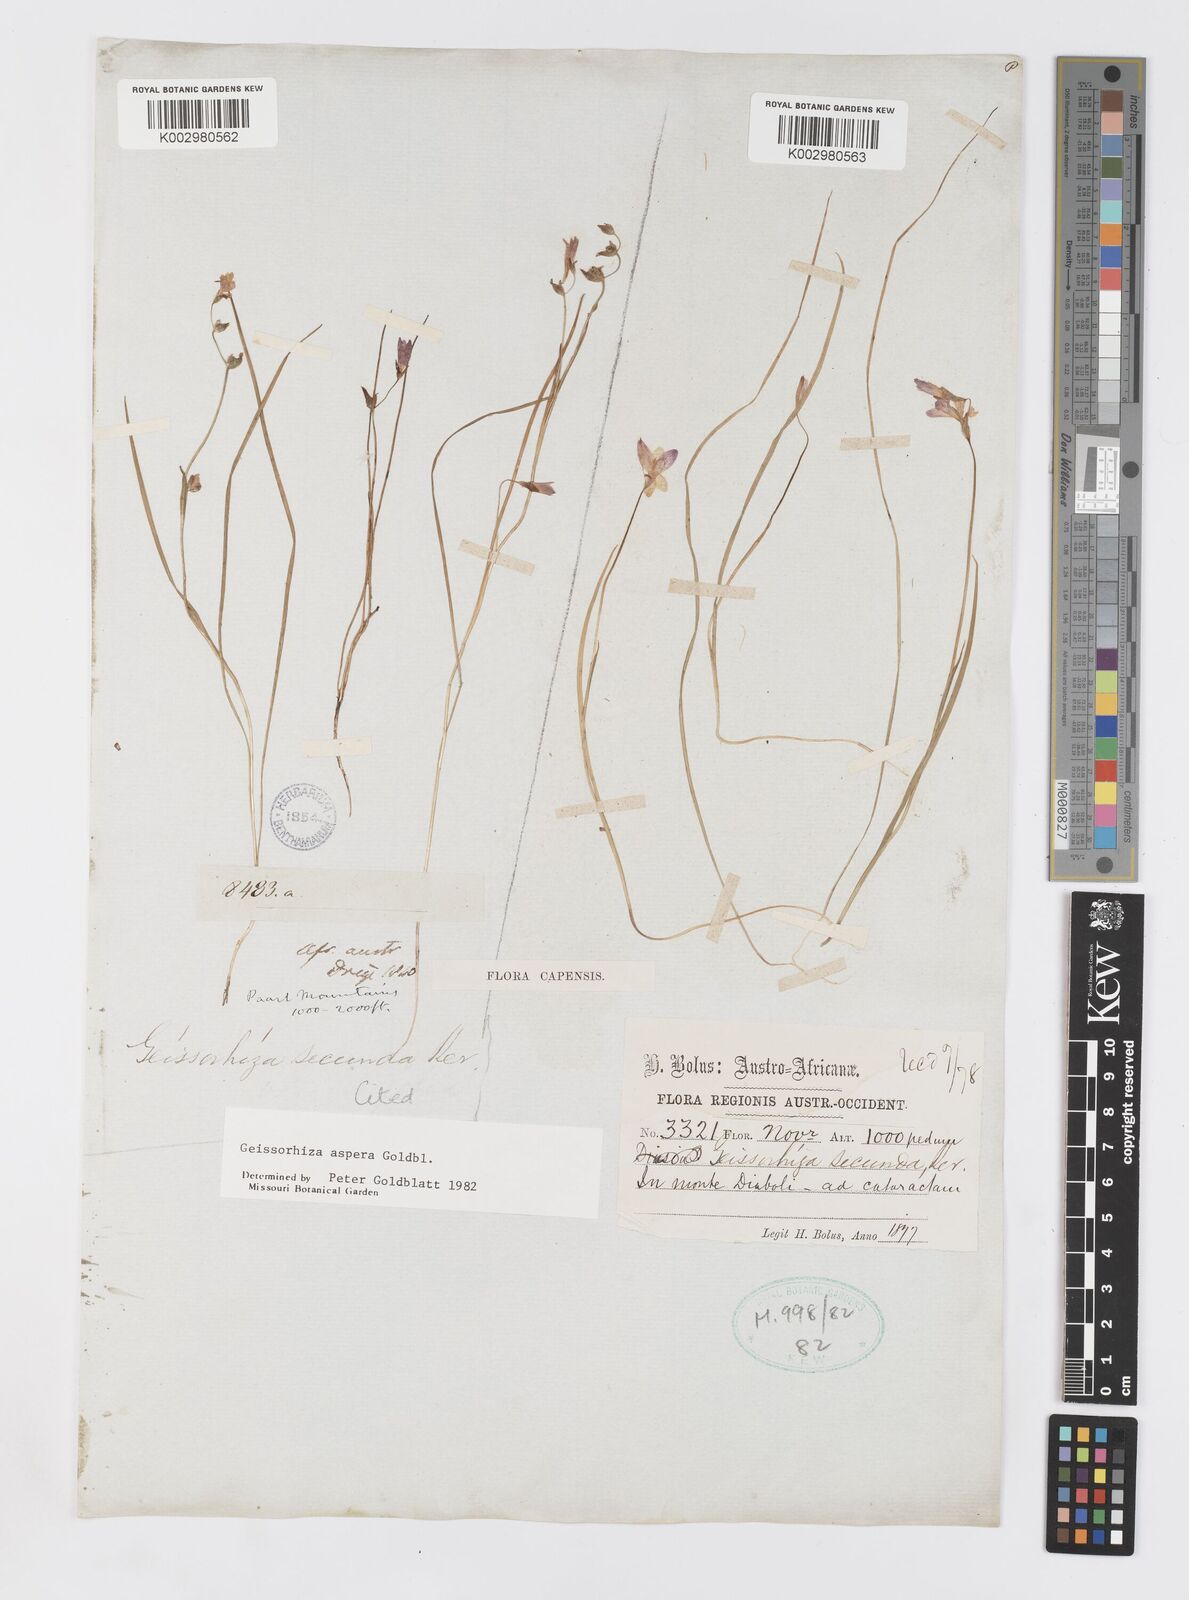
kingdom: Plantae
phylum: Tracheophyta
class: Liliopsida
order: Asparagales
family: Iridaceae
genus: Geissorhiza
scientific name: Geissorhiza aspera
